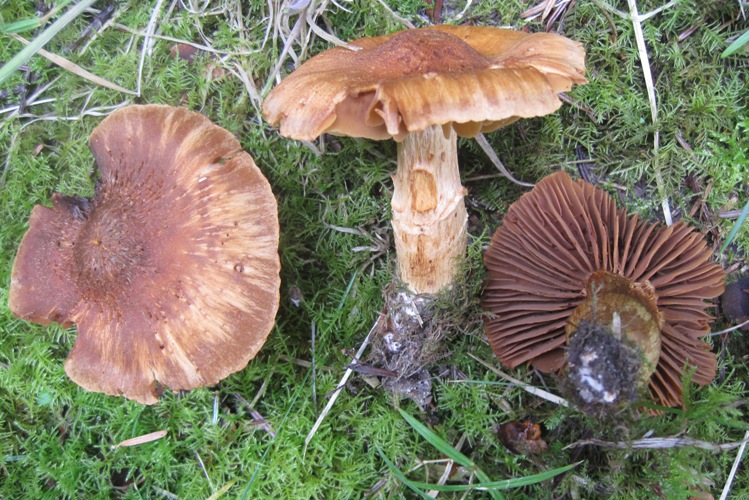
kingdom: Fungi
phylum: Basidiomycota
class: Agaricomycetes
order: Agaricales
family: Cortinariaceae
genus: Cortinarius
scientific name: Cortinarius rubellus
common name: puklet gift-slørhat
